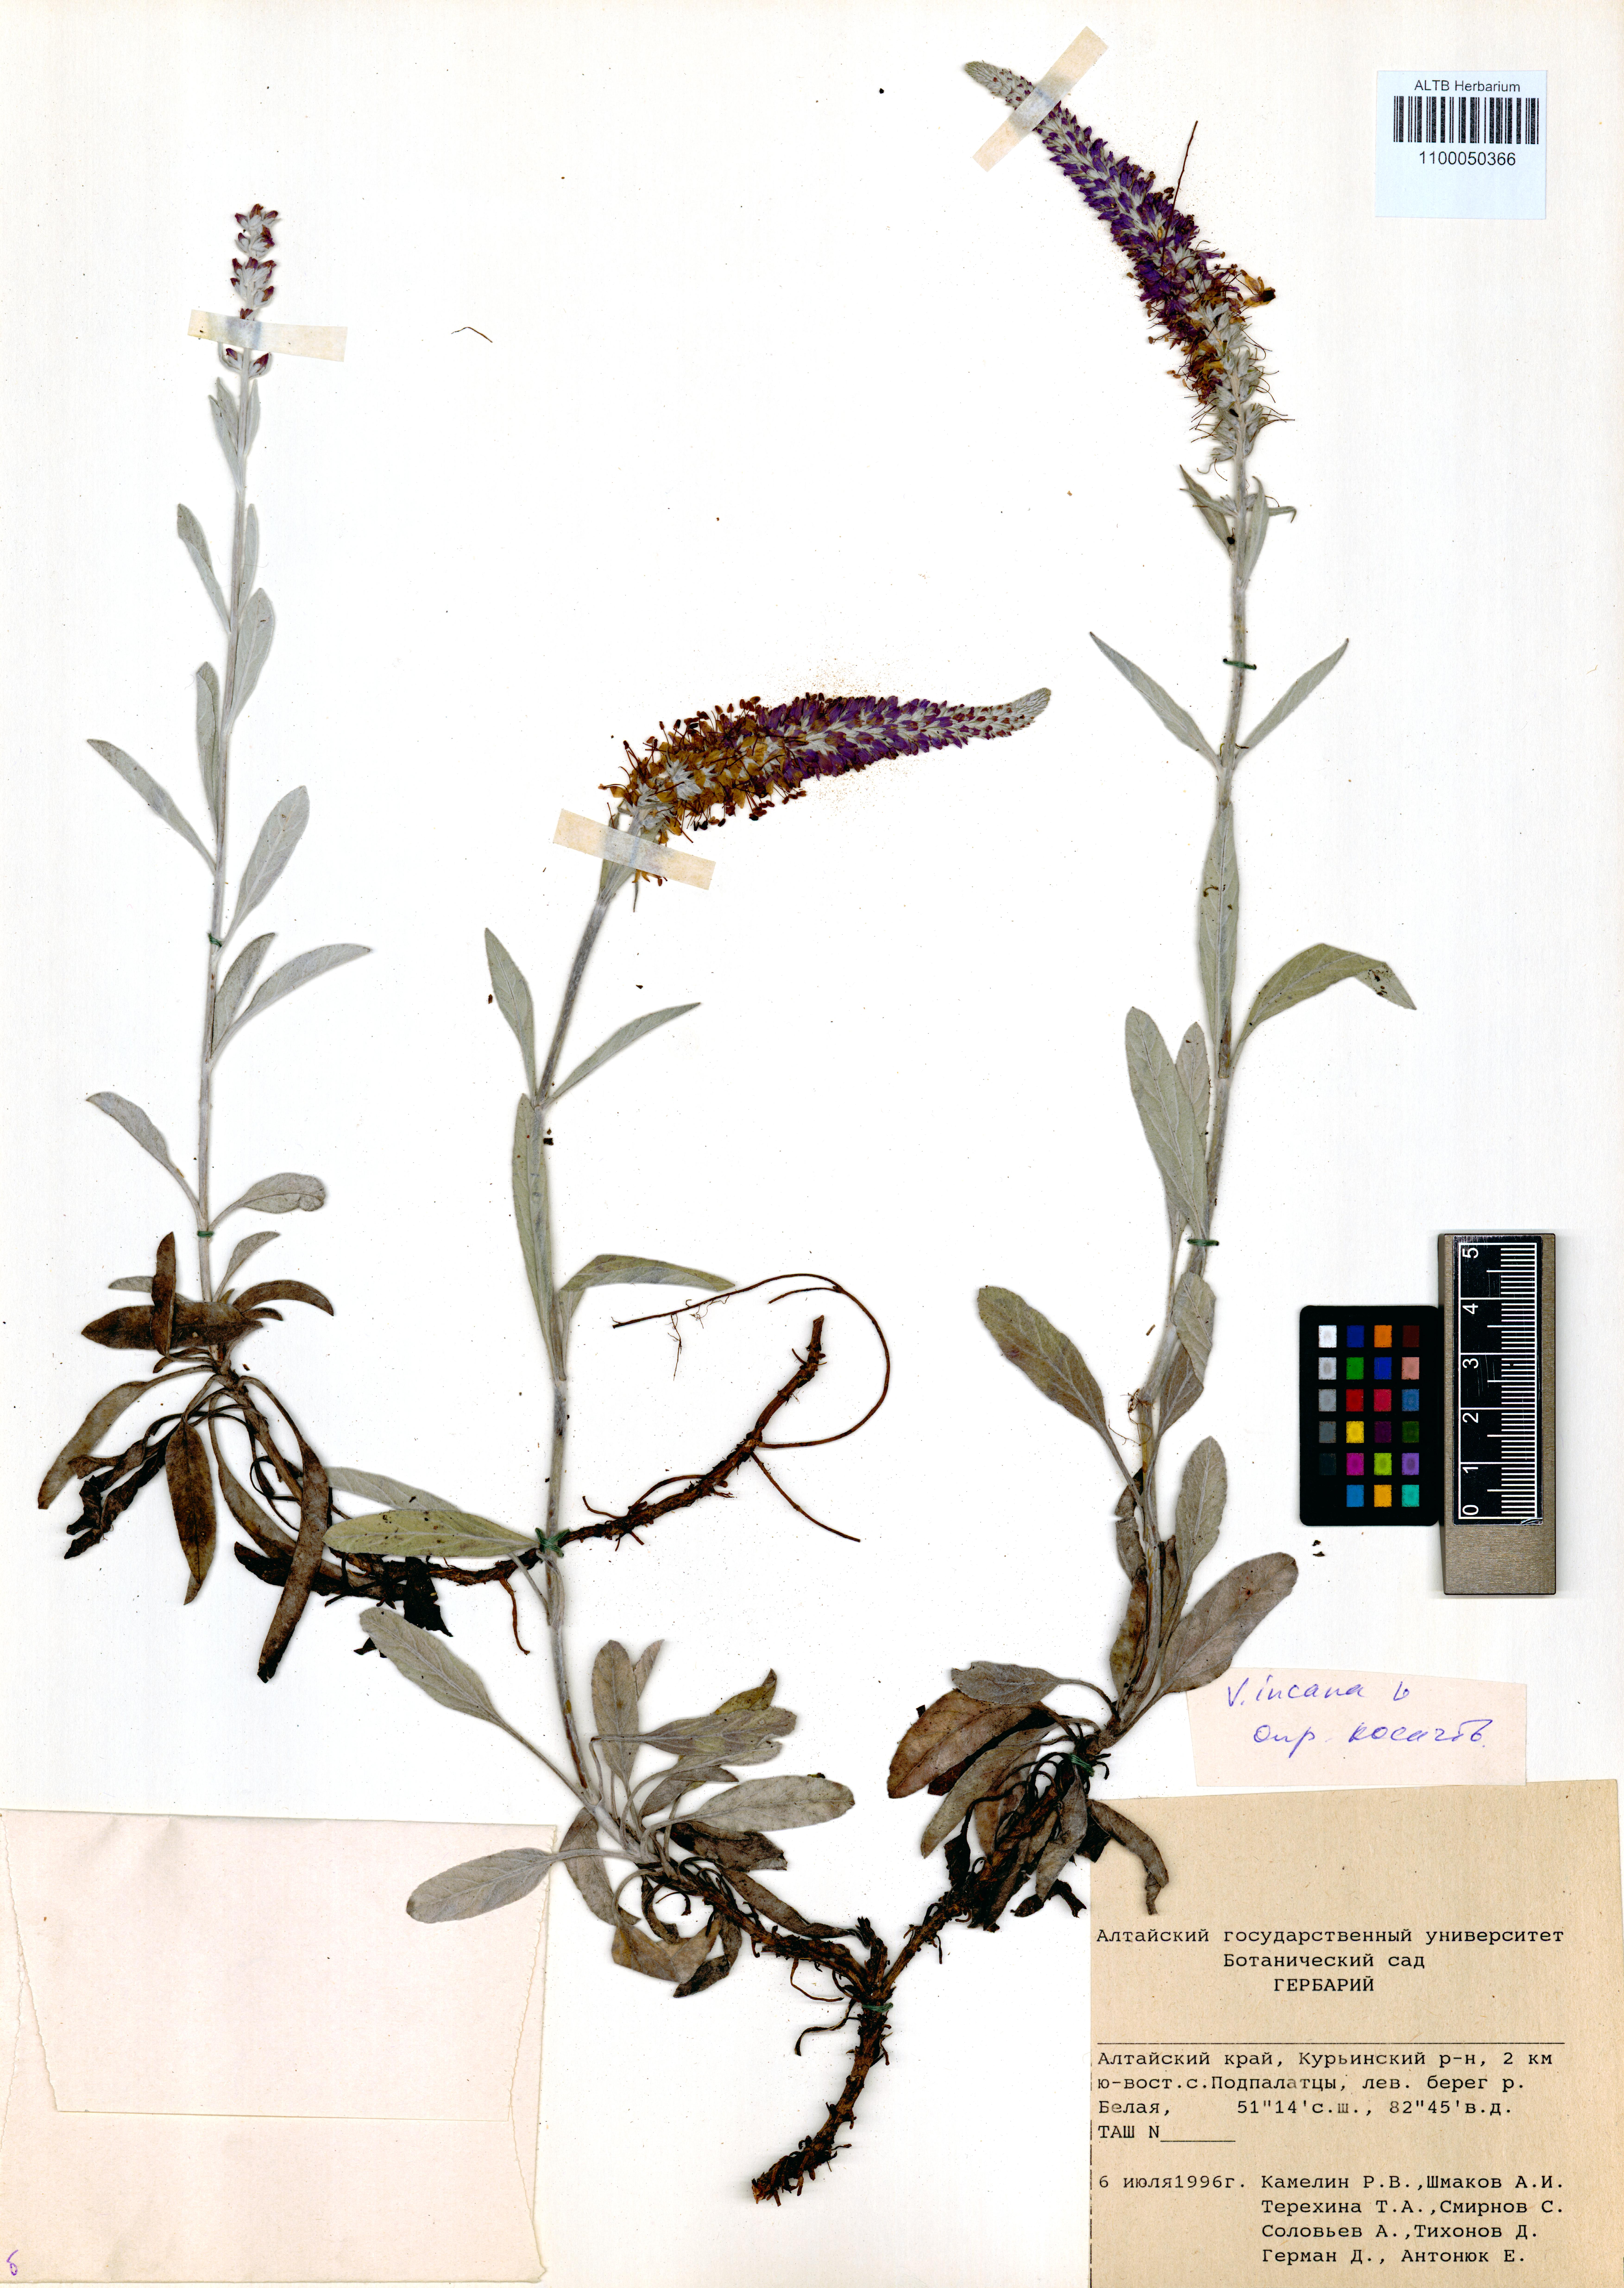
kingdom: Plantae
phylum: Tracheophyta
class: Magnoliopsida
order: Lamiales
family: Plantaginaceae
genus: Veronica
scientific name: Veronica incana
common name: Silver speedwell
